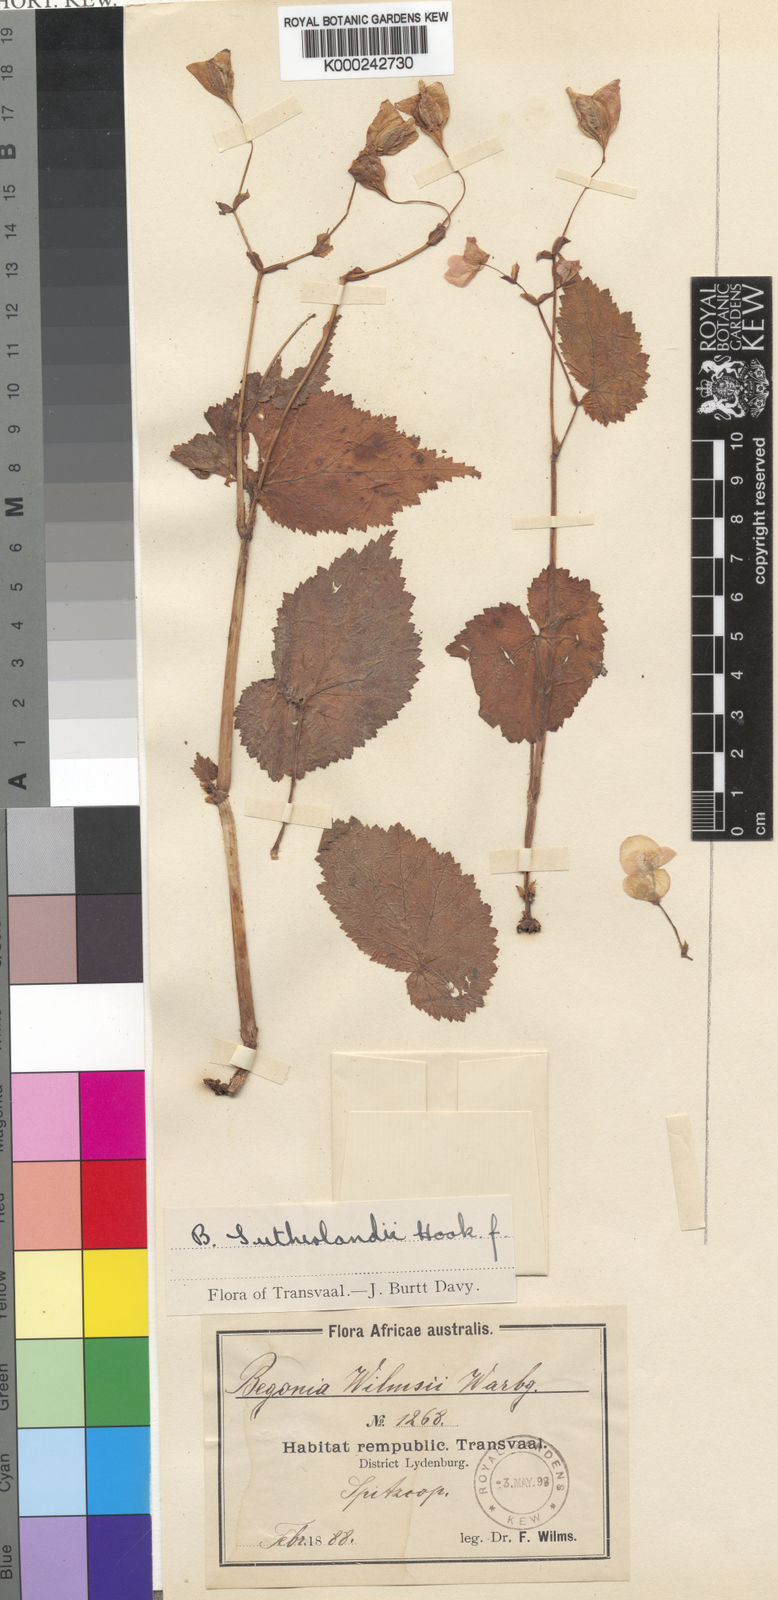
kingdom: Plantae
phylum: Tracheophyta
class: Magnoliopsida
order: Cucurbitales
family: Begoniaceae
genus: Begonia
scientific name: Begonia sutherlandii
